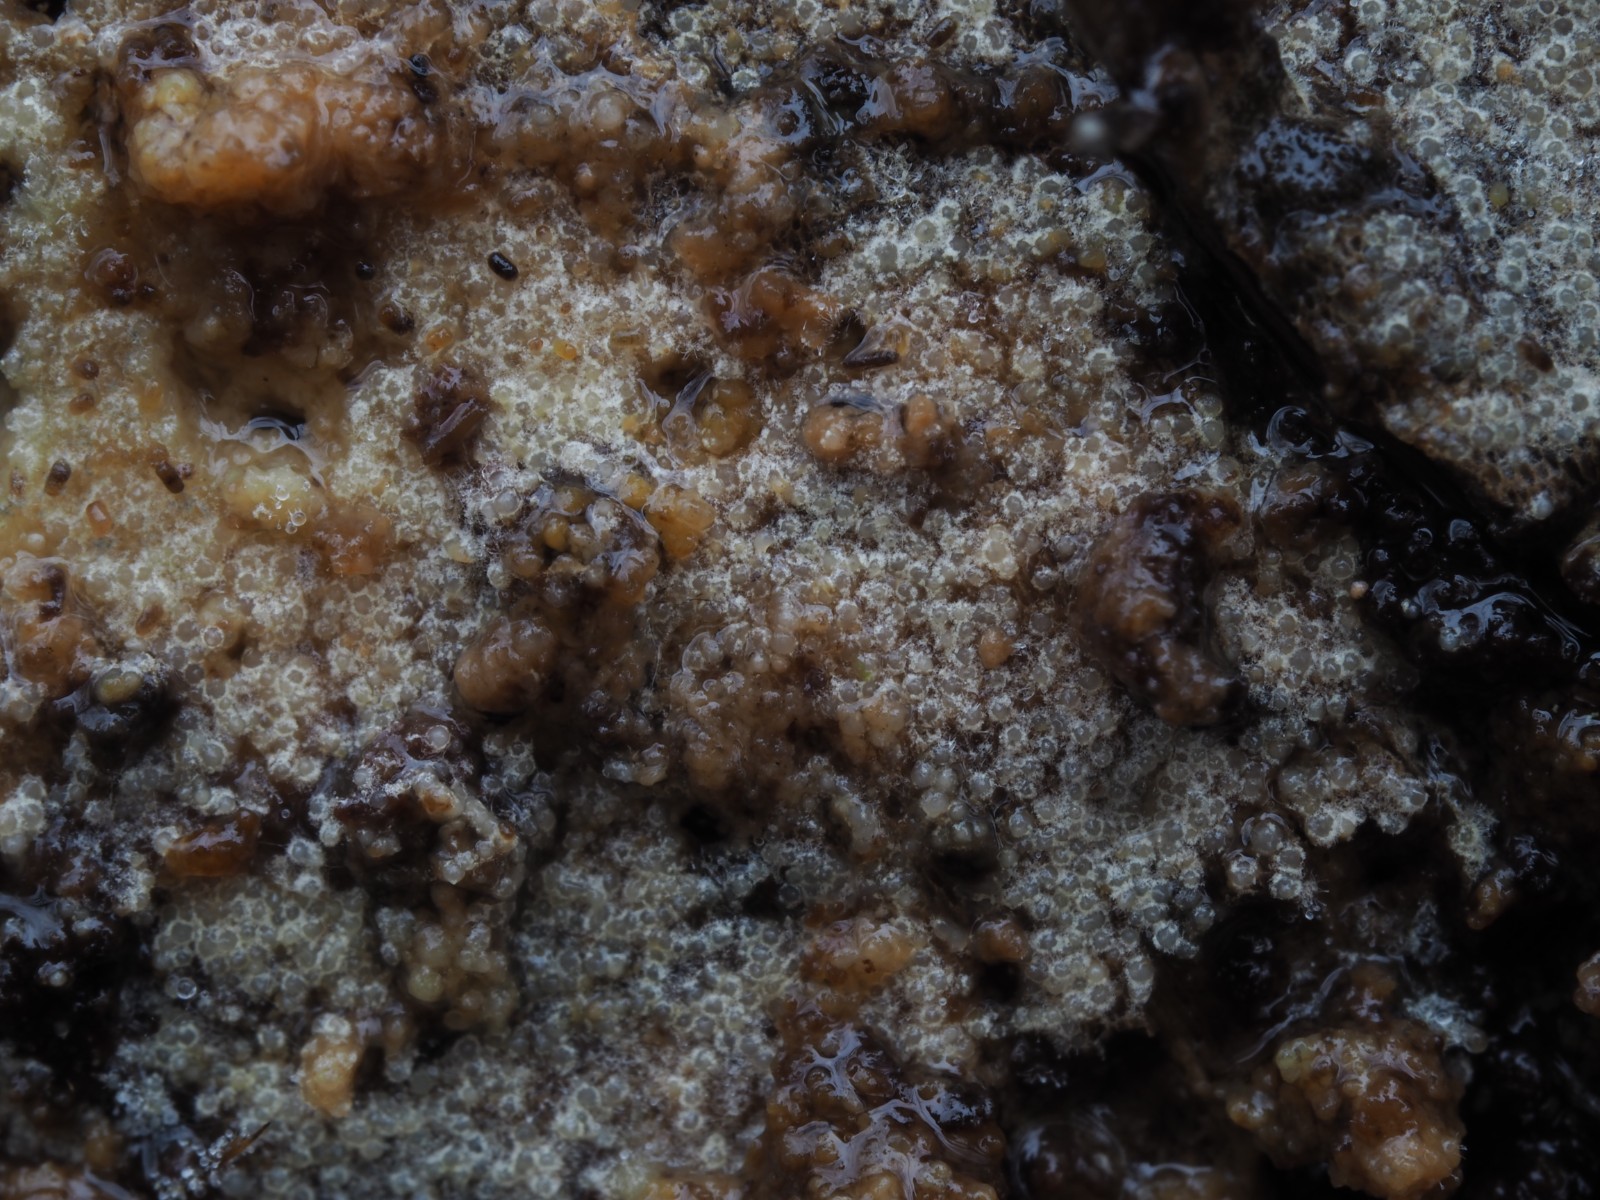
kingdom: Fungi
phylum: Ascomycota
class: Sordariomycetes
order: Hypocreales
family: Hypocreaceae
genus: Protocrea
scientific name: Protocrea farinosa
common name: krystalpore-kødkerne
